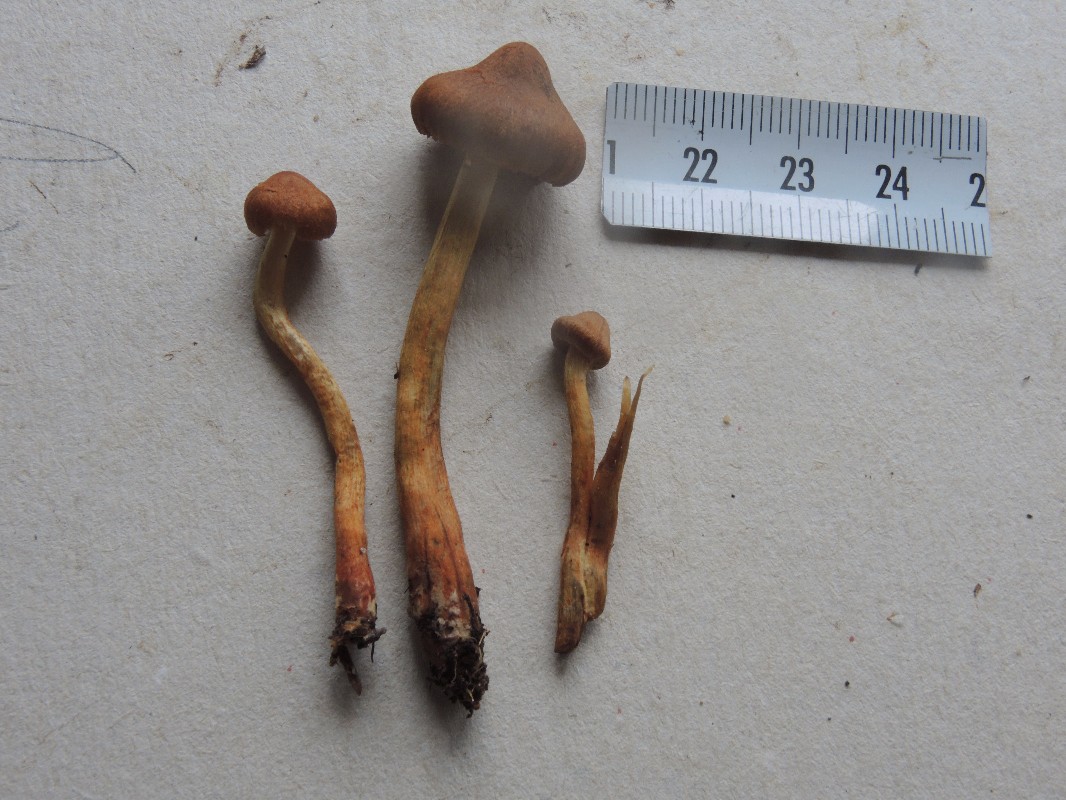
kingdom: Fungi
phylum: Basidiomycota
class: Agaricomycetes
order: Agaricales
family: Cortinariaceae
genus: Cortinarius
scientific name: Cortinarius bataillei
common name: orangefodet slørhat
